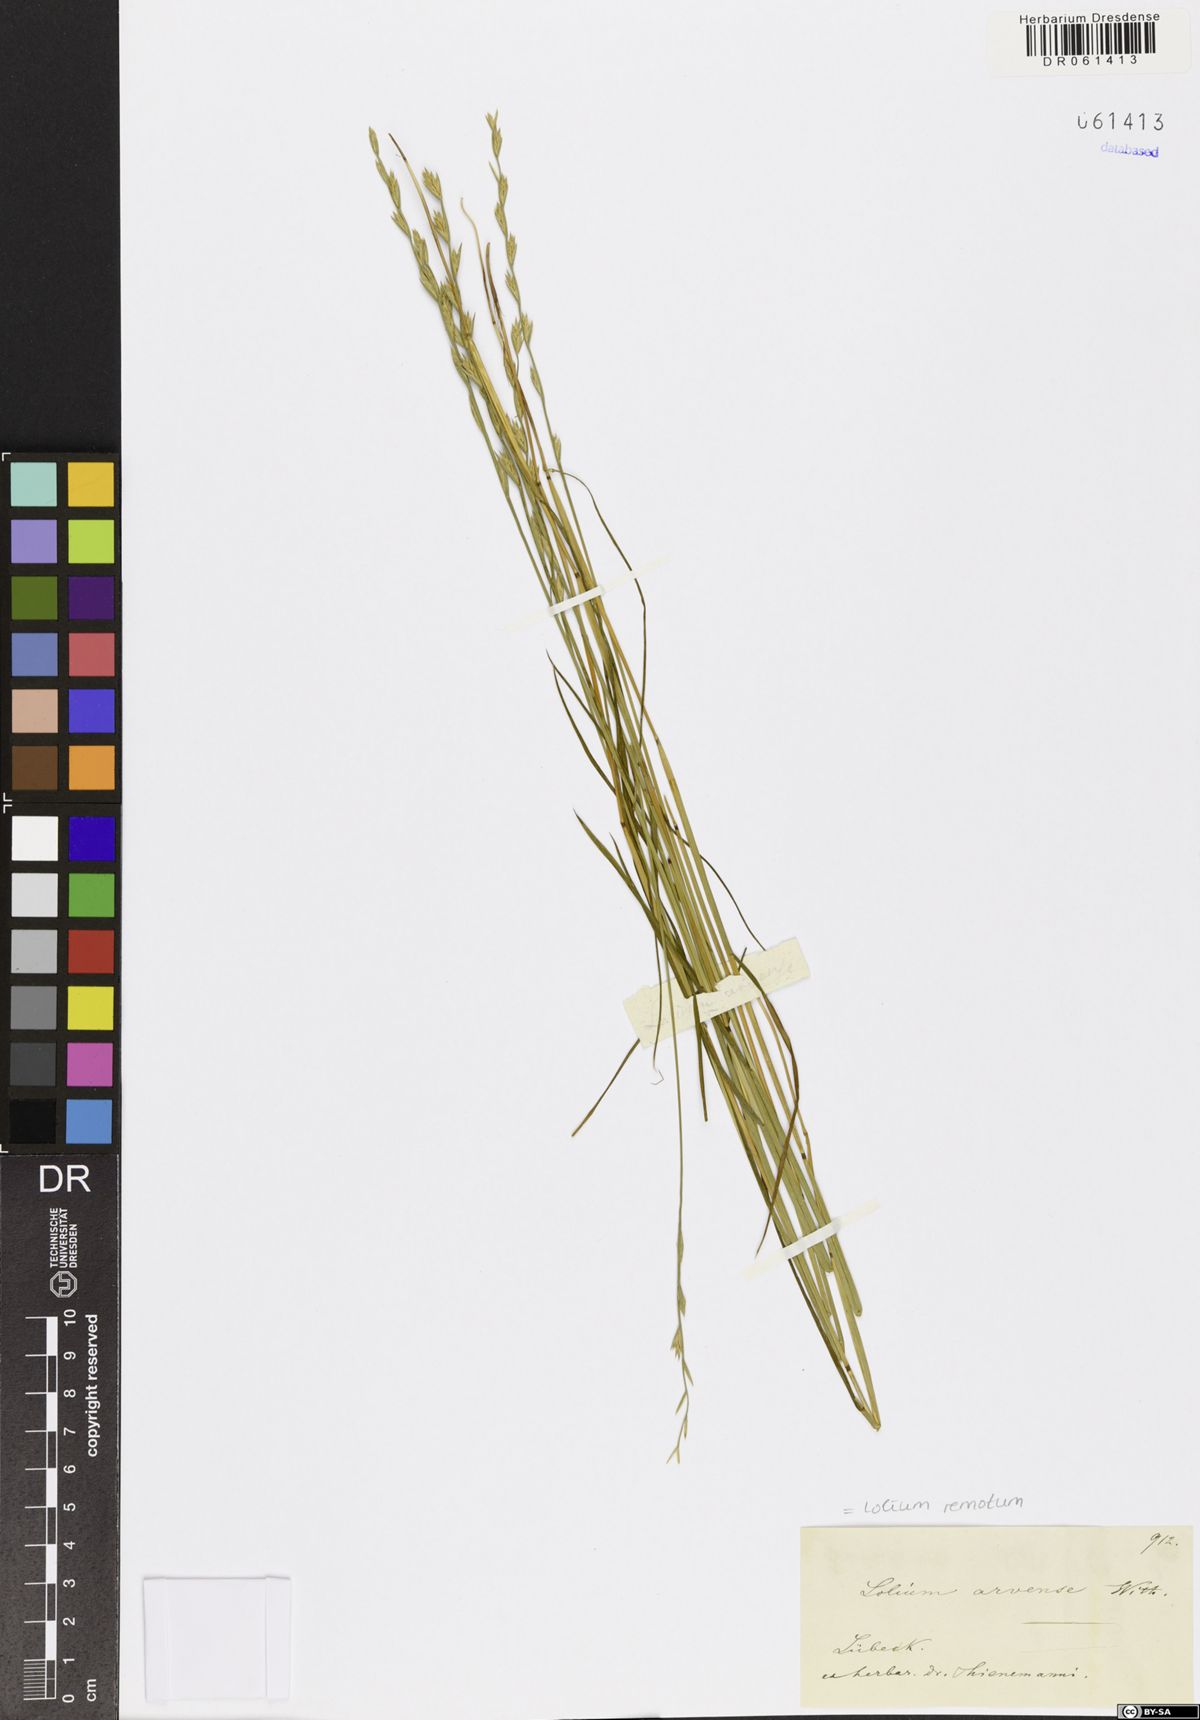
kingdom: Plantae
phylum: Tracheophyta
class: Liliopsida
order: Poales
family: Poaceae
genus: Lolium
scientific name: Lolium remotum
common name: Flaxfield rye-grass
